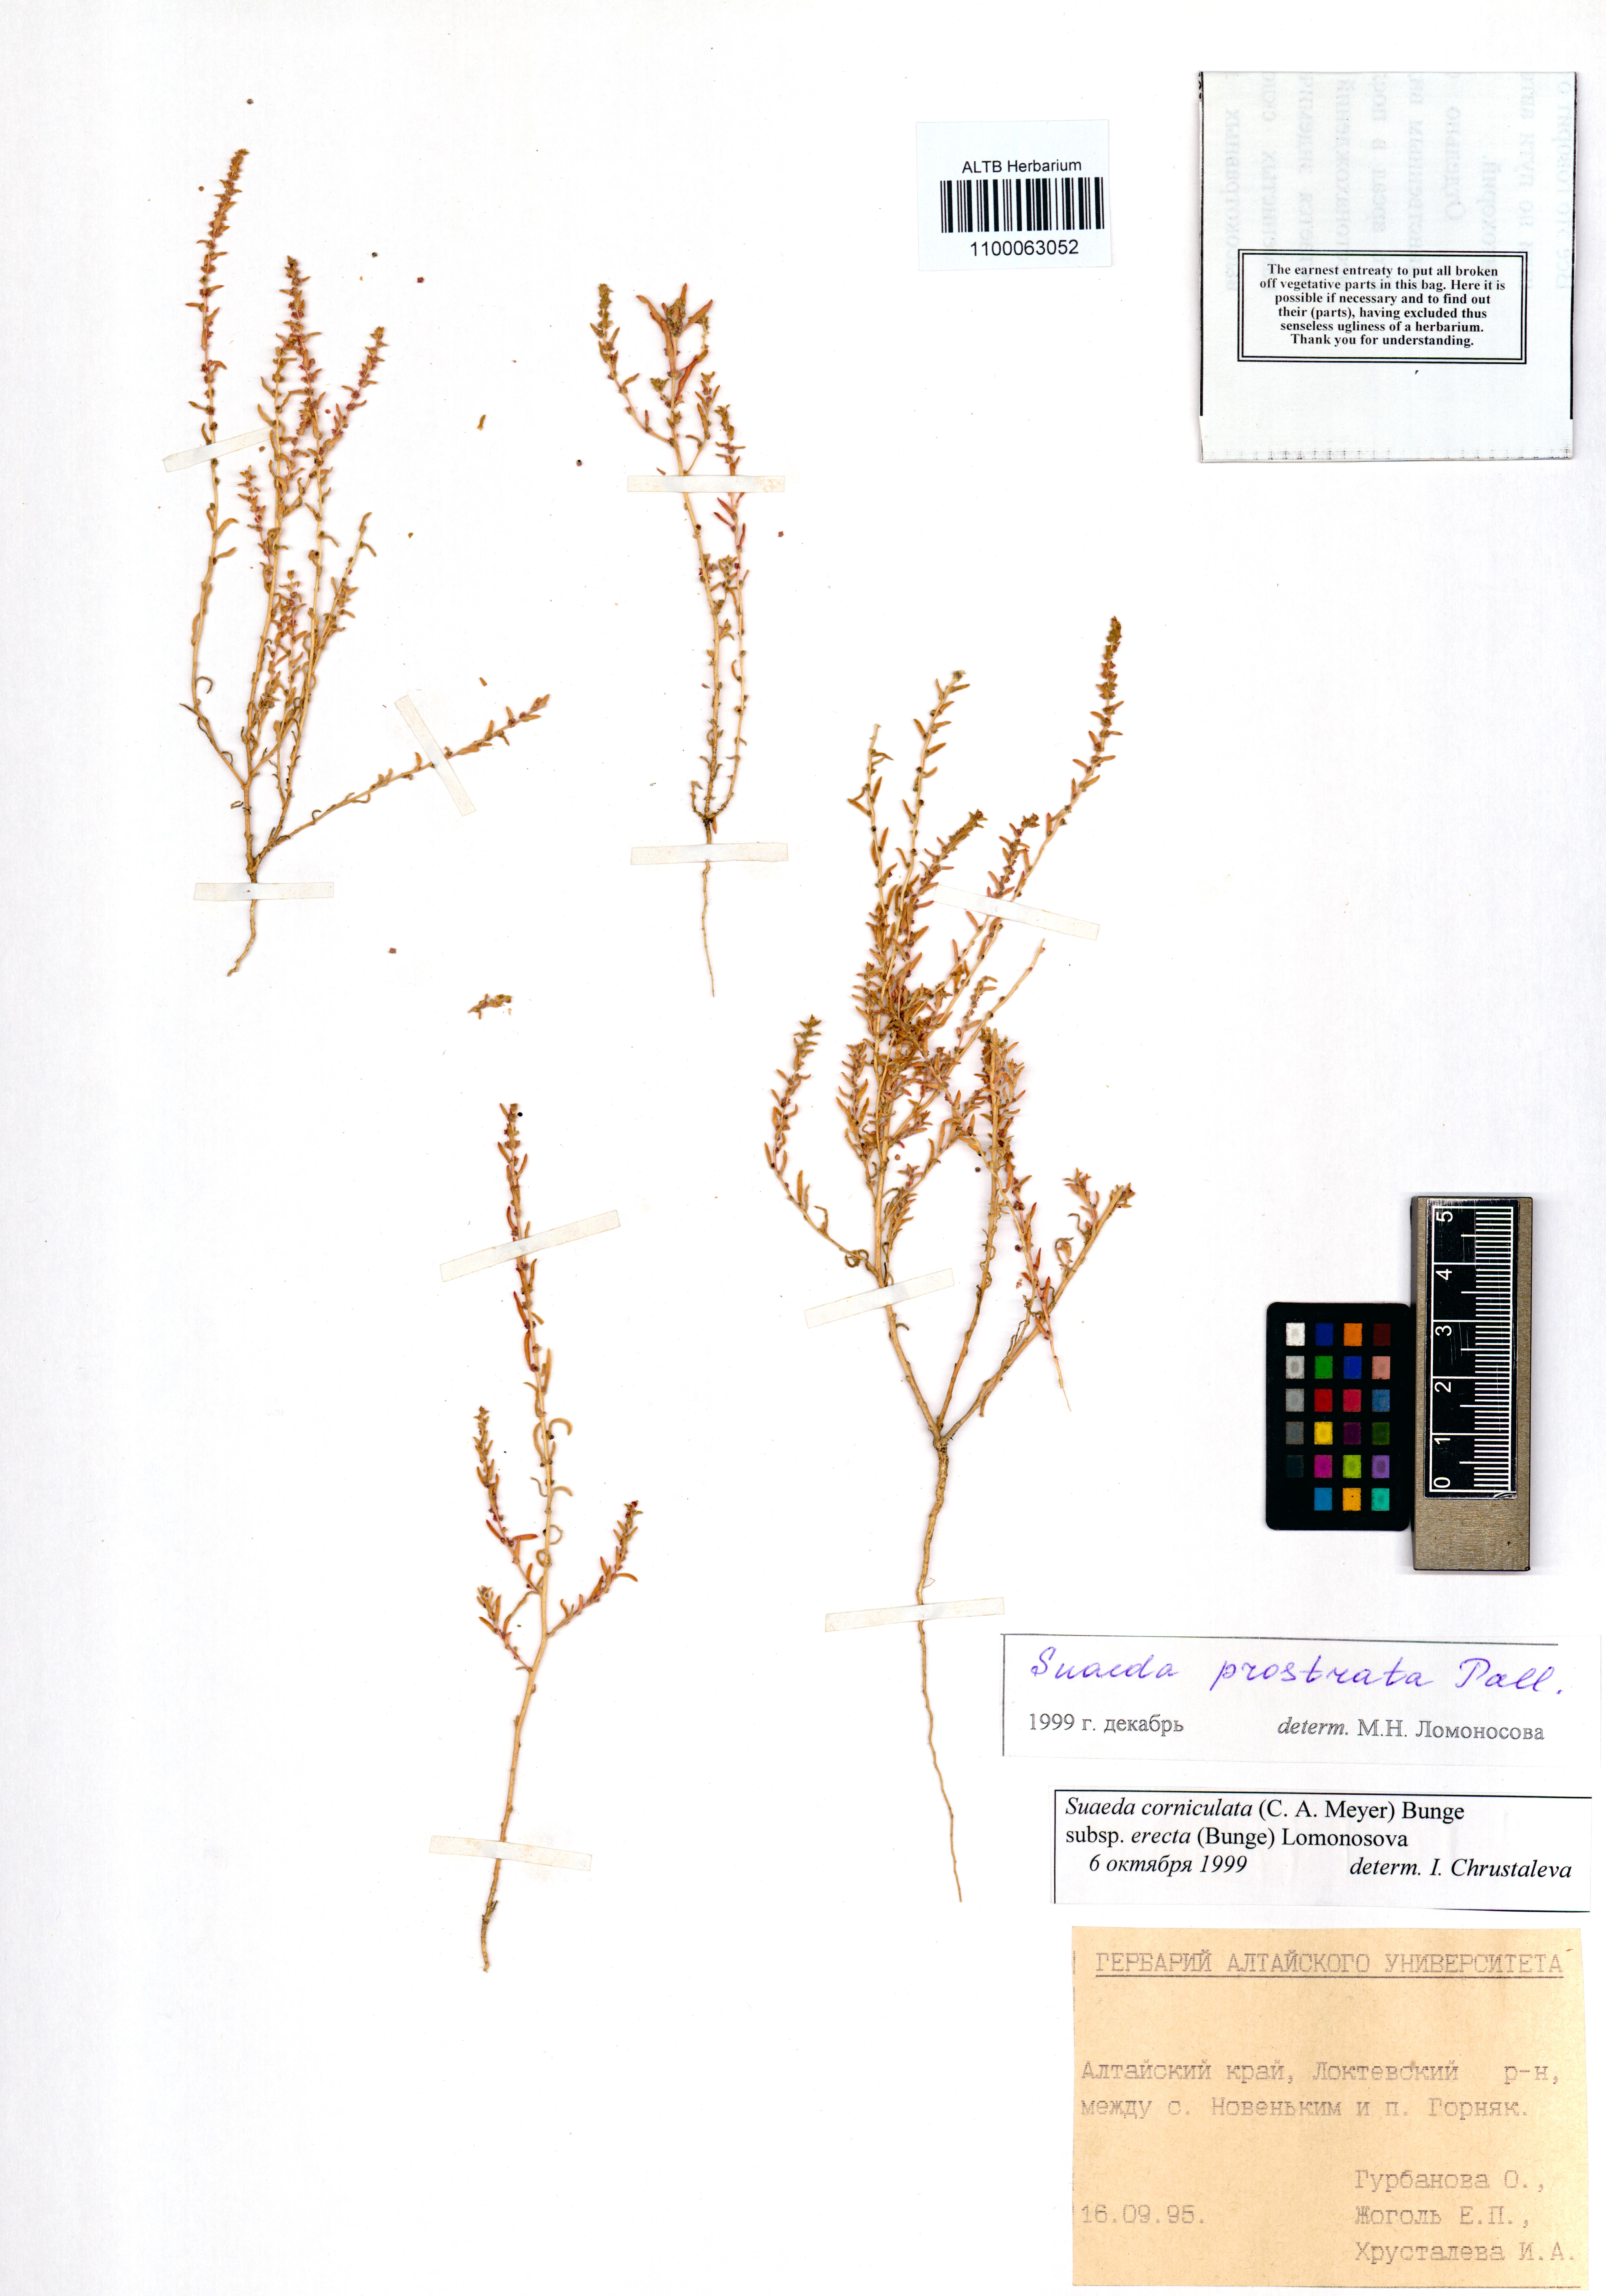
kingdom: Plantae
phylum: Tracheophyta
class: Magnoliopsida
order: Caryophyllales
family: Amaranthaceae
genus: Suaeda
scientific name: Suaeda prostrata
